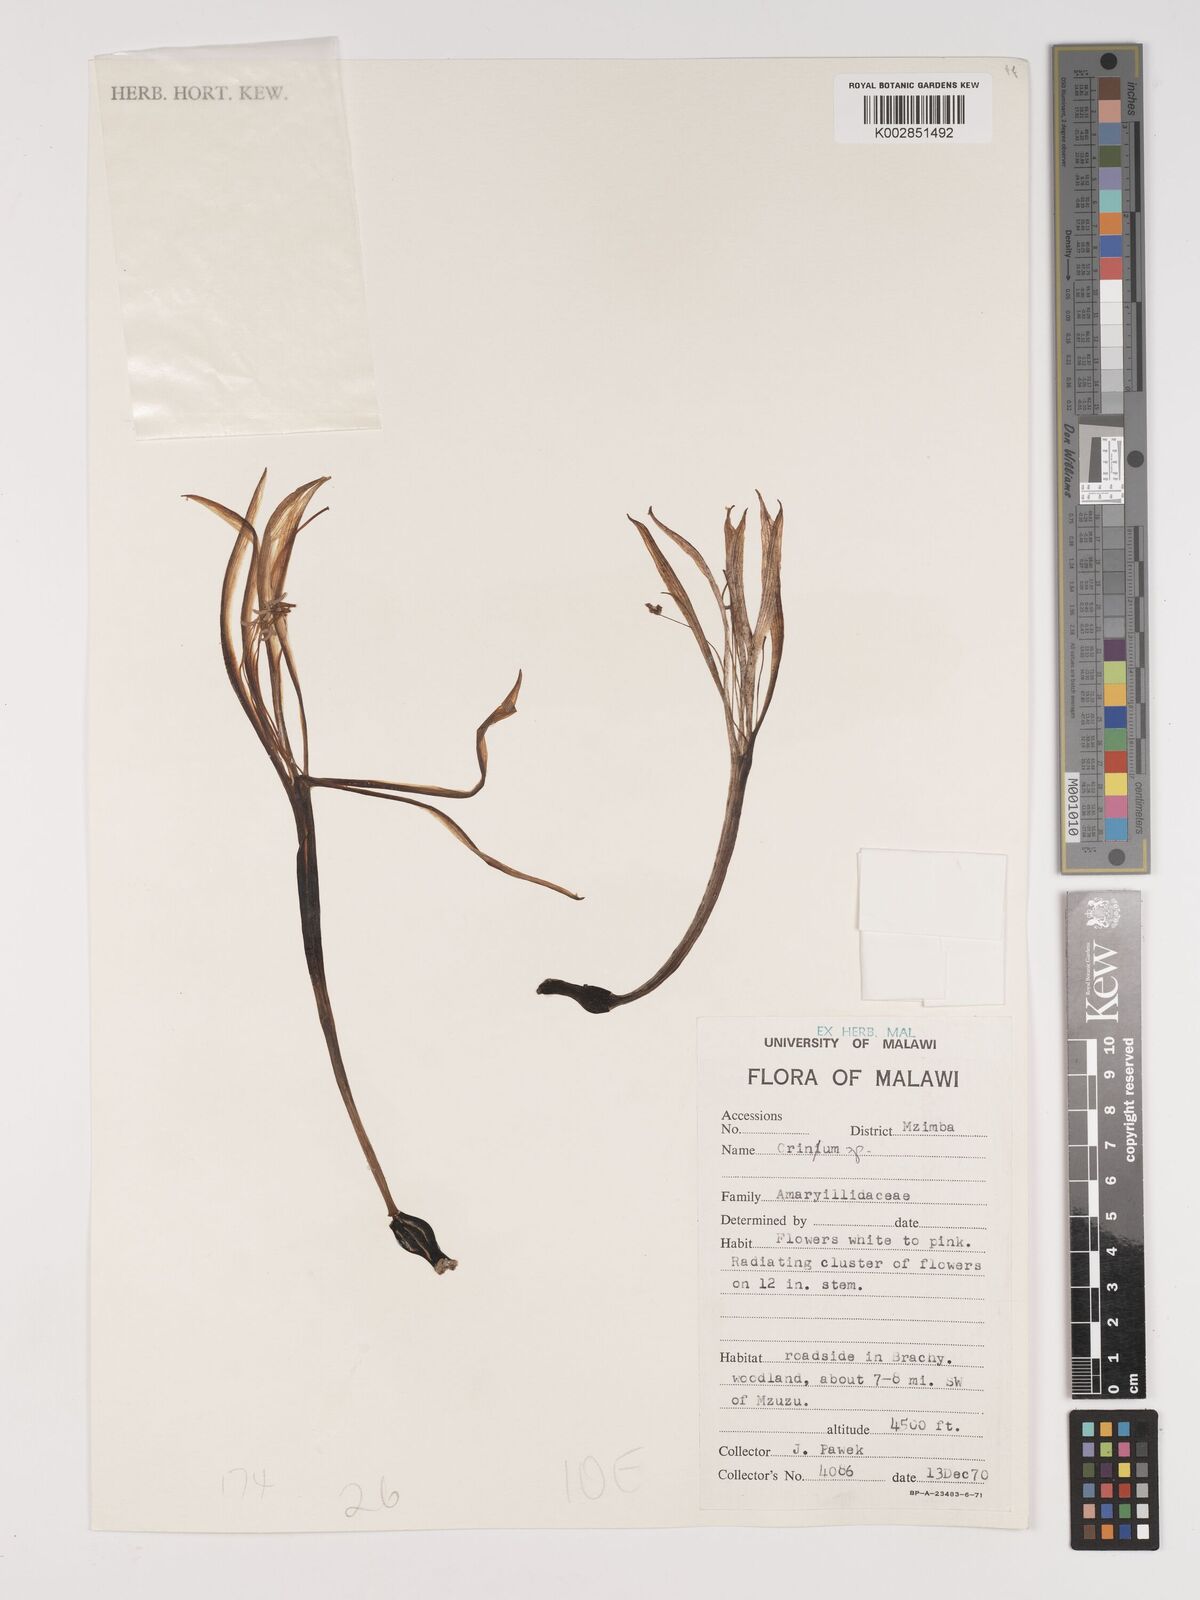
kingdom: Plantae
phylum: Tracheophyta
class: Liliopsida
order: Asparagales
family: Amaryllidaceae
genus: Crinum
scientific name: Crinum stuhlmannii
